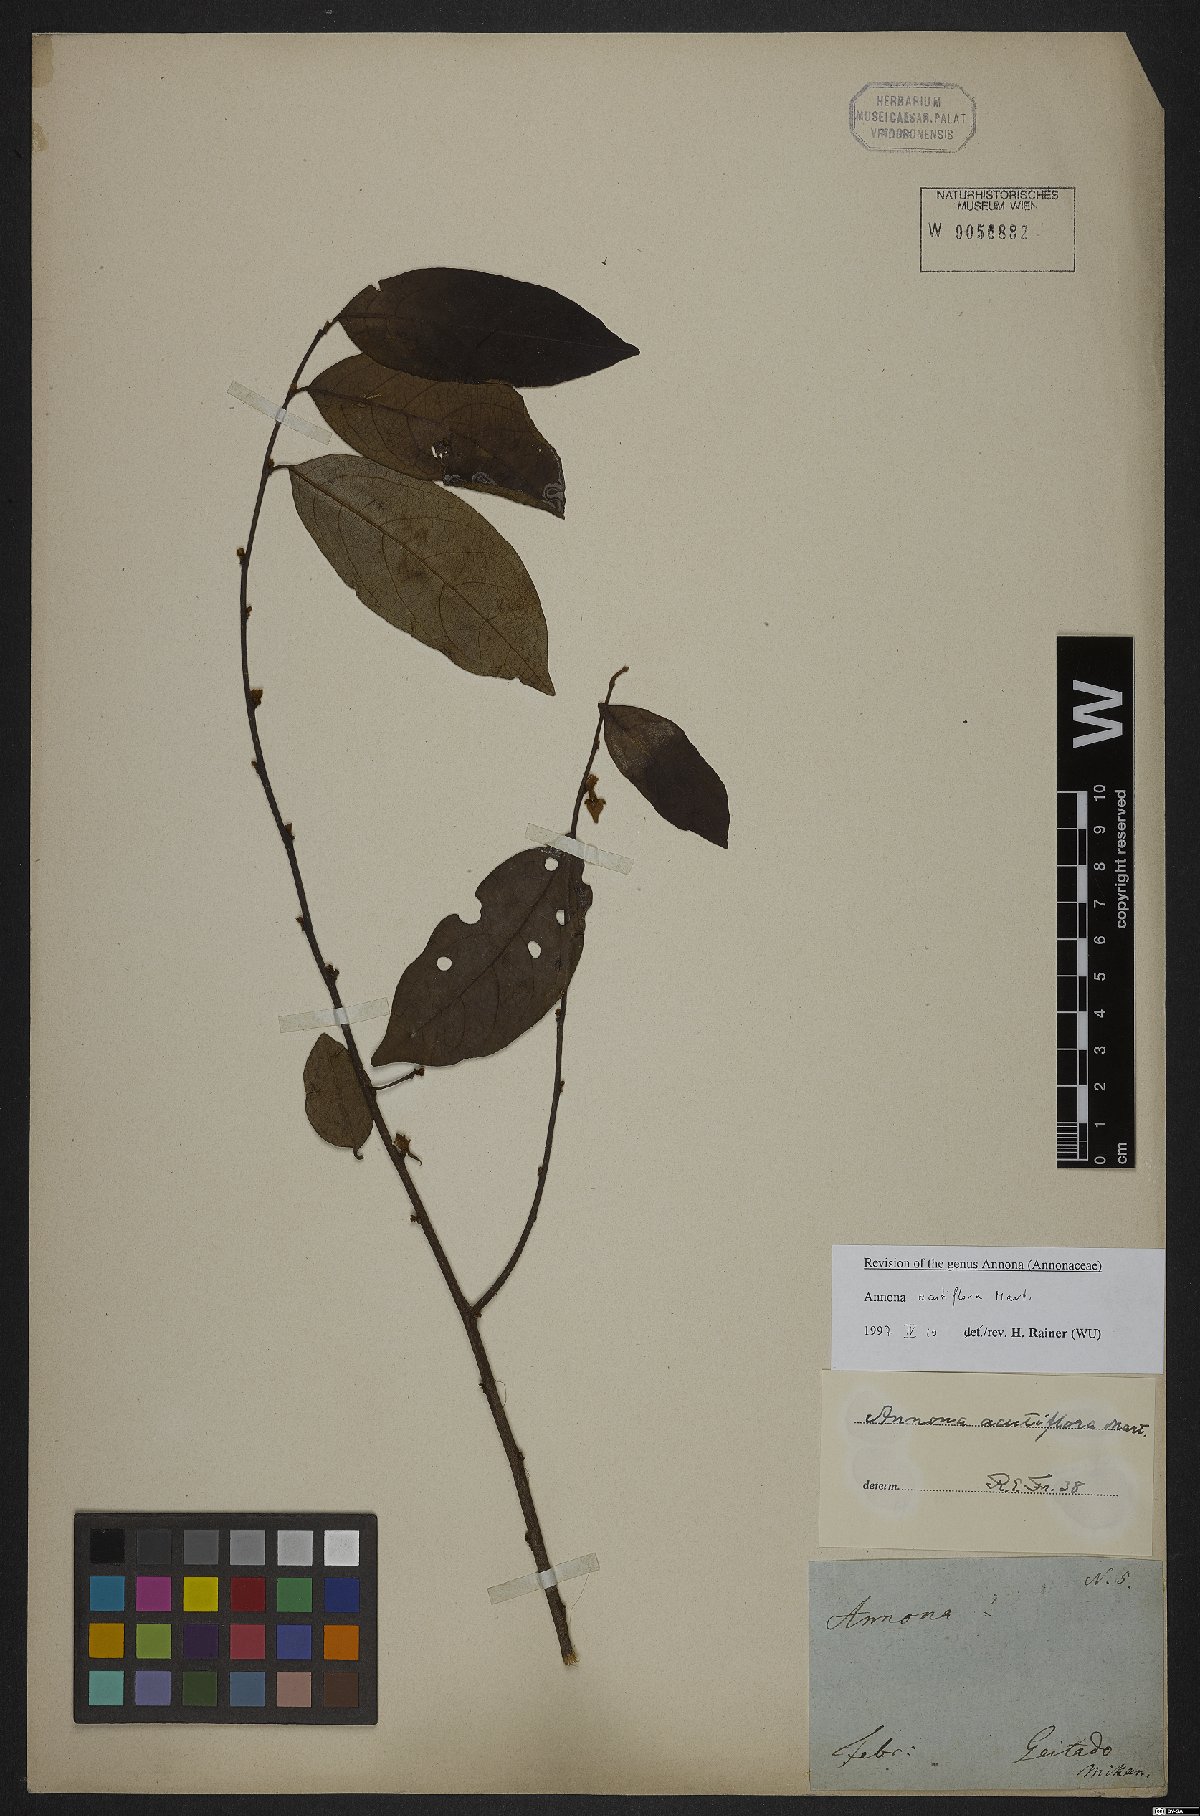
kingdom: Plantae
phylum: Tracheophyta
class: Magnoliopsida
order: Magnoliales
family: Annonaceae
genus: Annona
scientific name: Annona acutiflora
